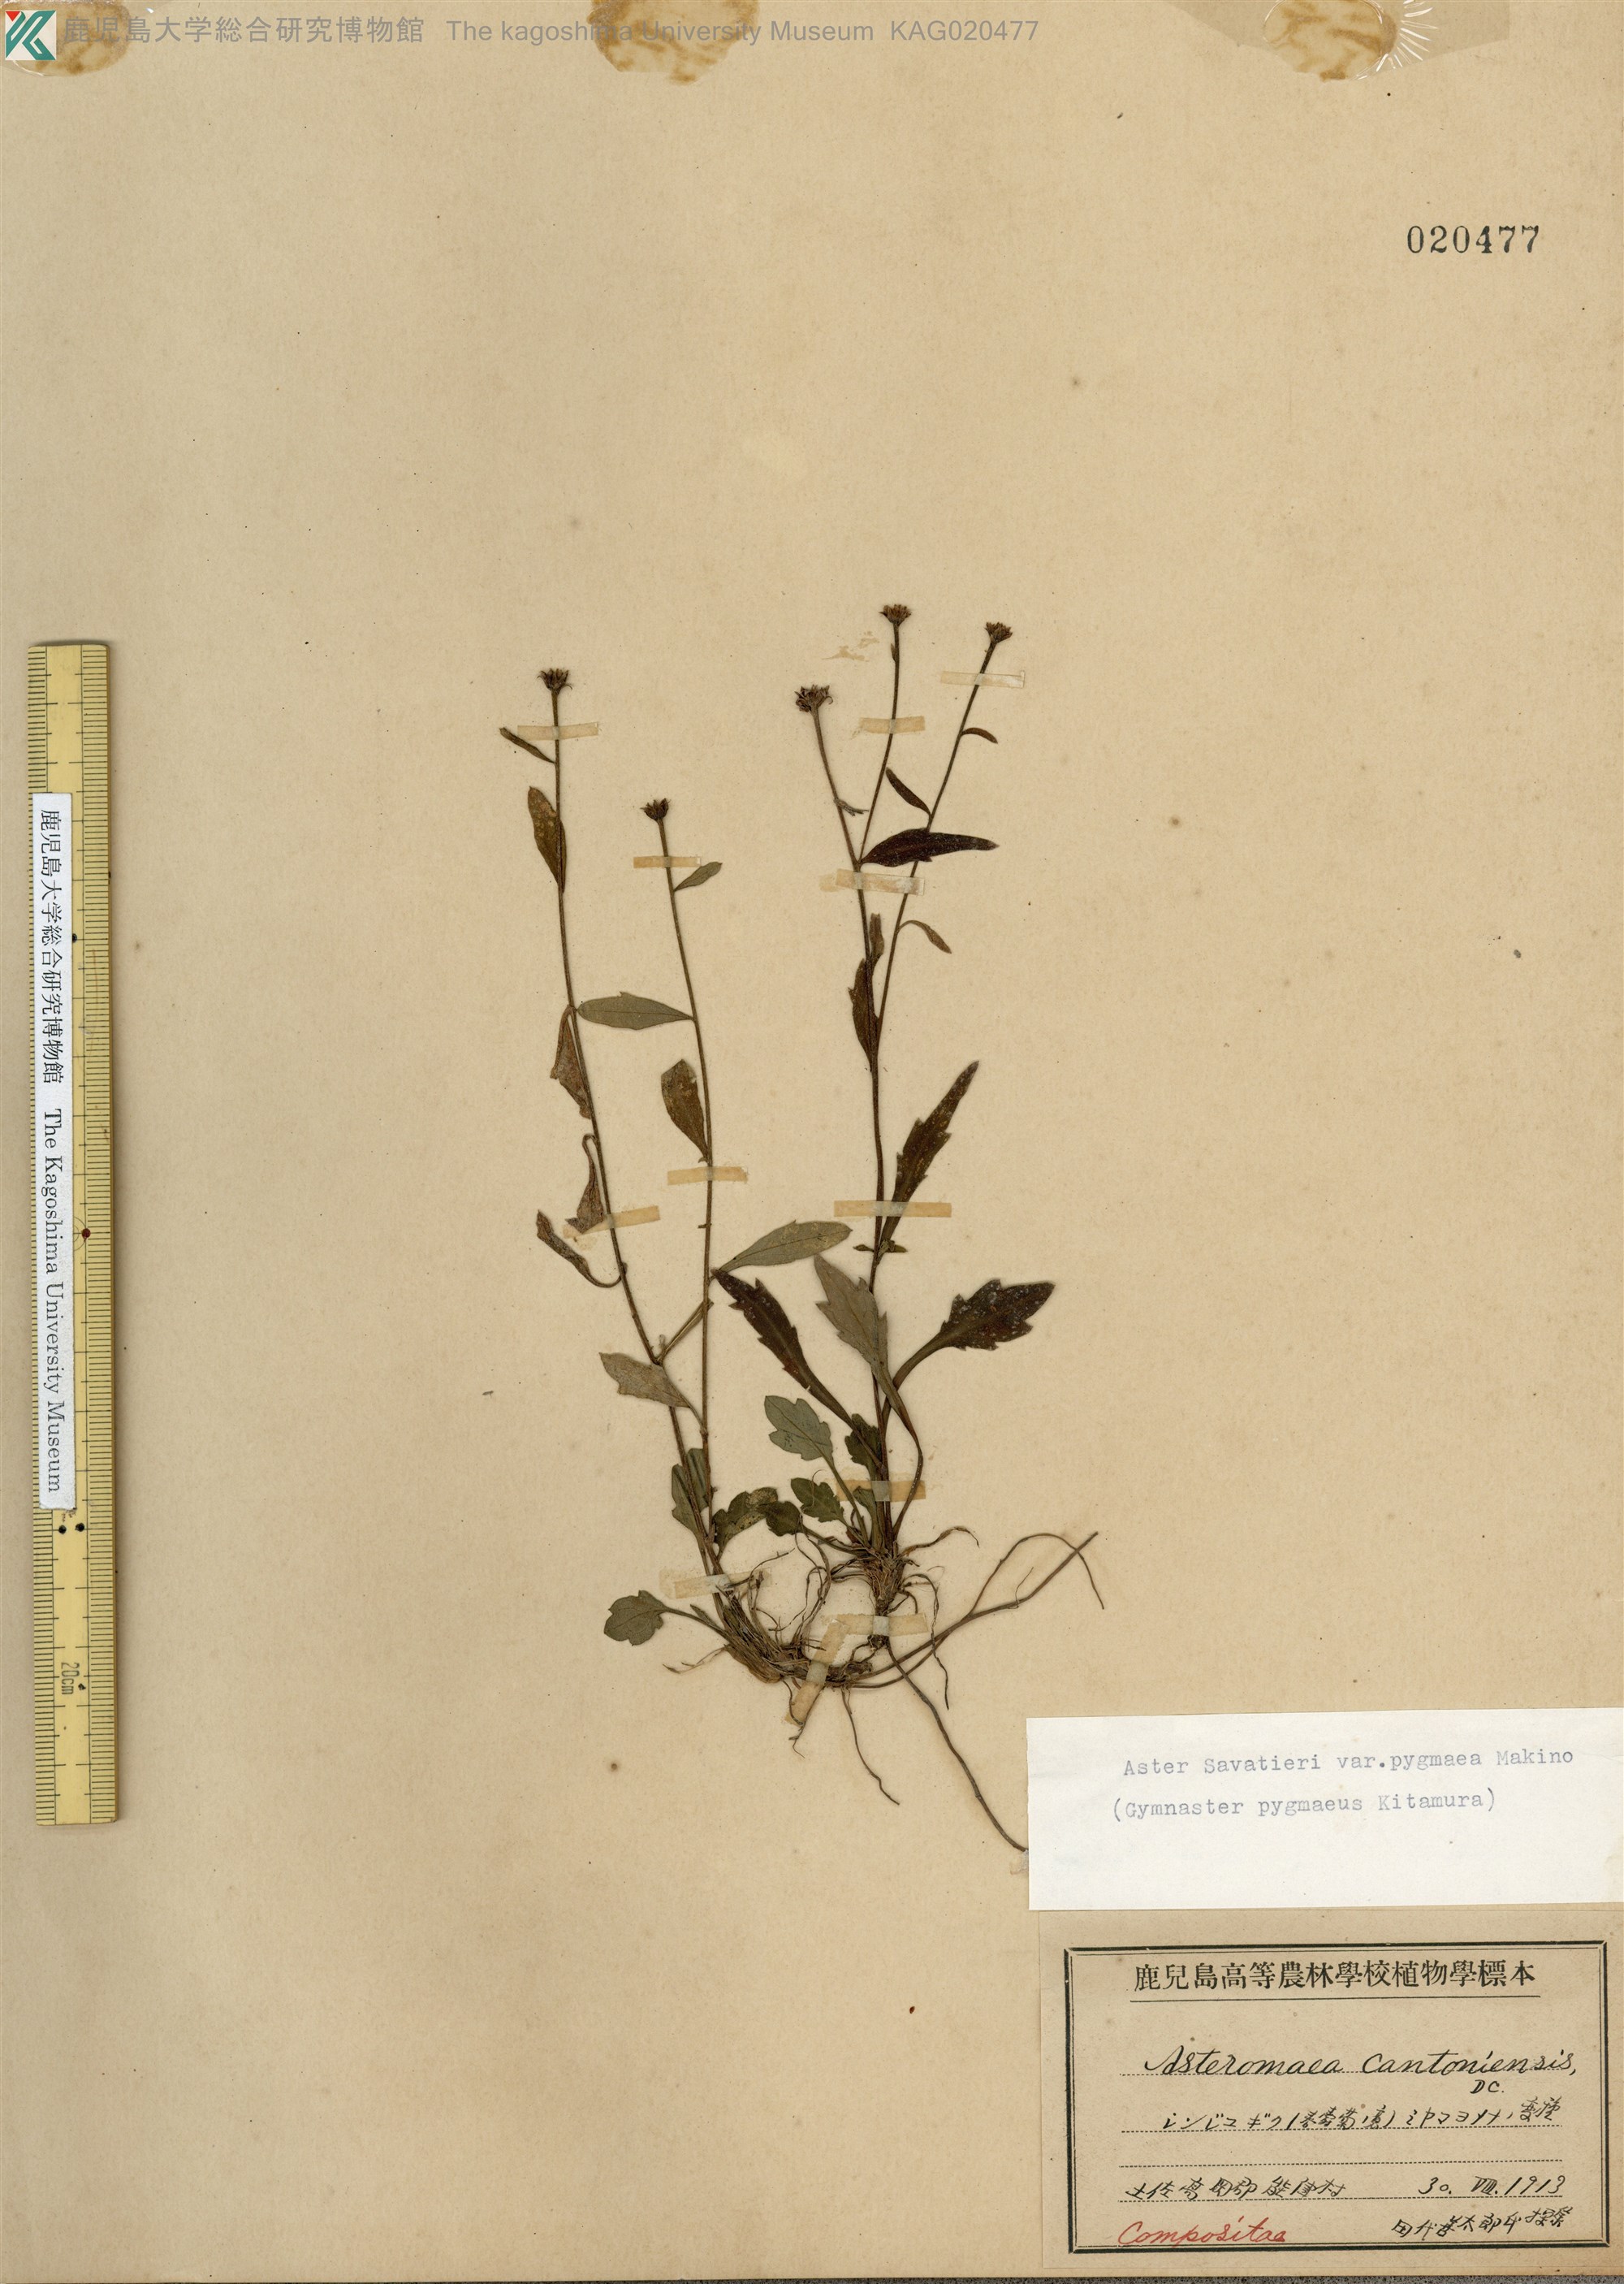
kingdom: Plantae
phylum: Tracheophyta
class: Magnoliopsida
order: Asterales
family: Asteraceae
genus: Miyamayomena
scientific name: Miyamayomena savatieri
